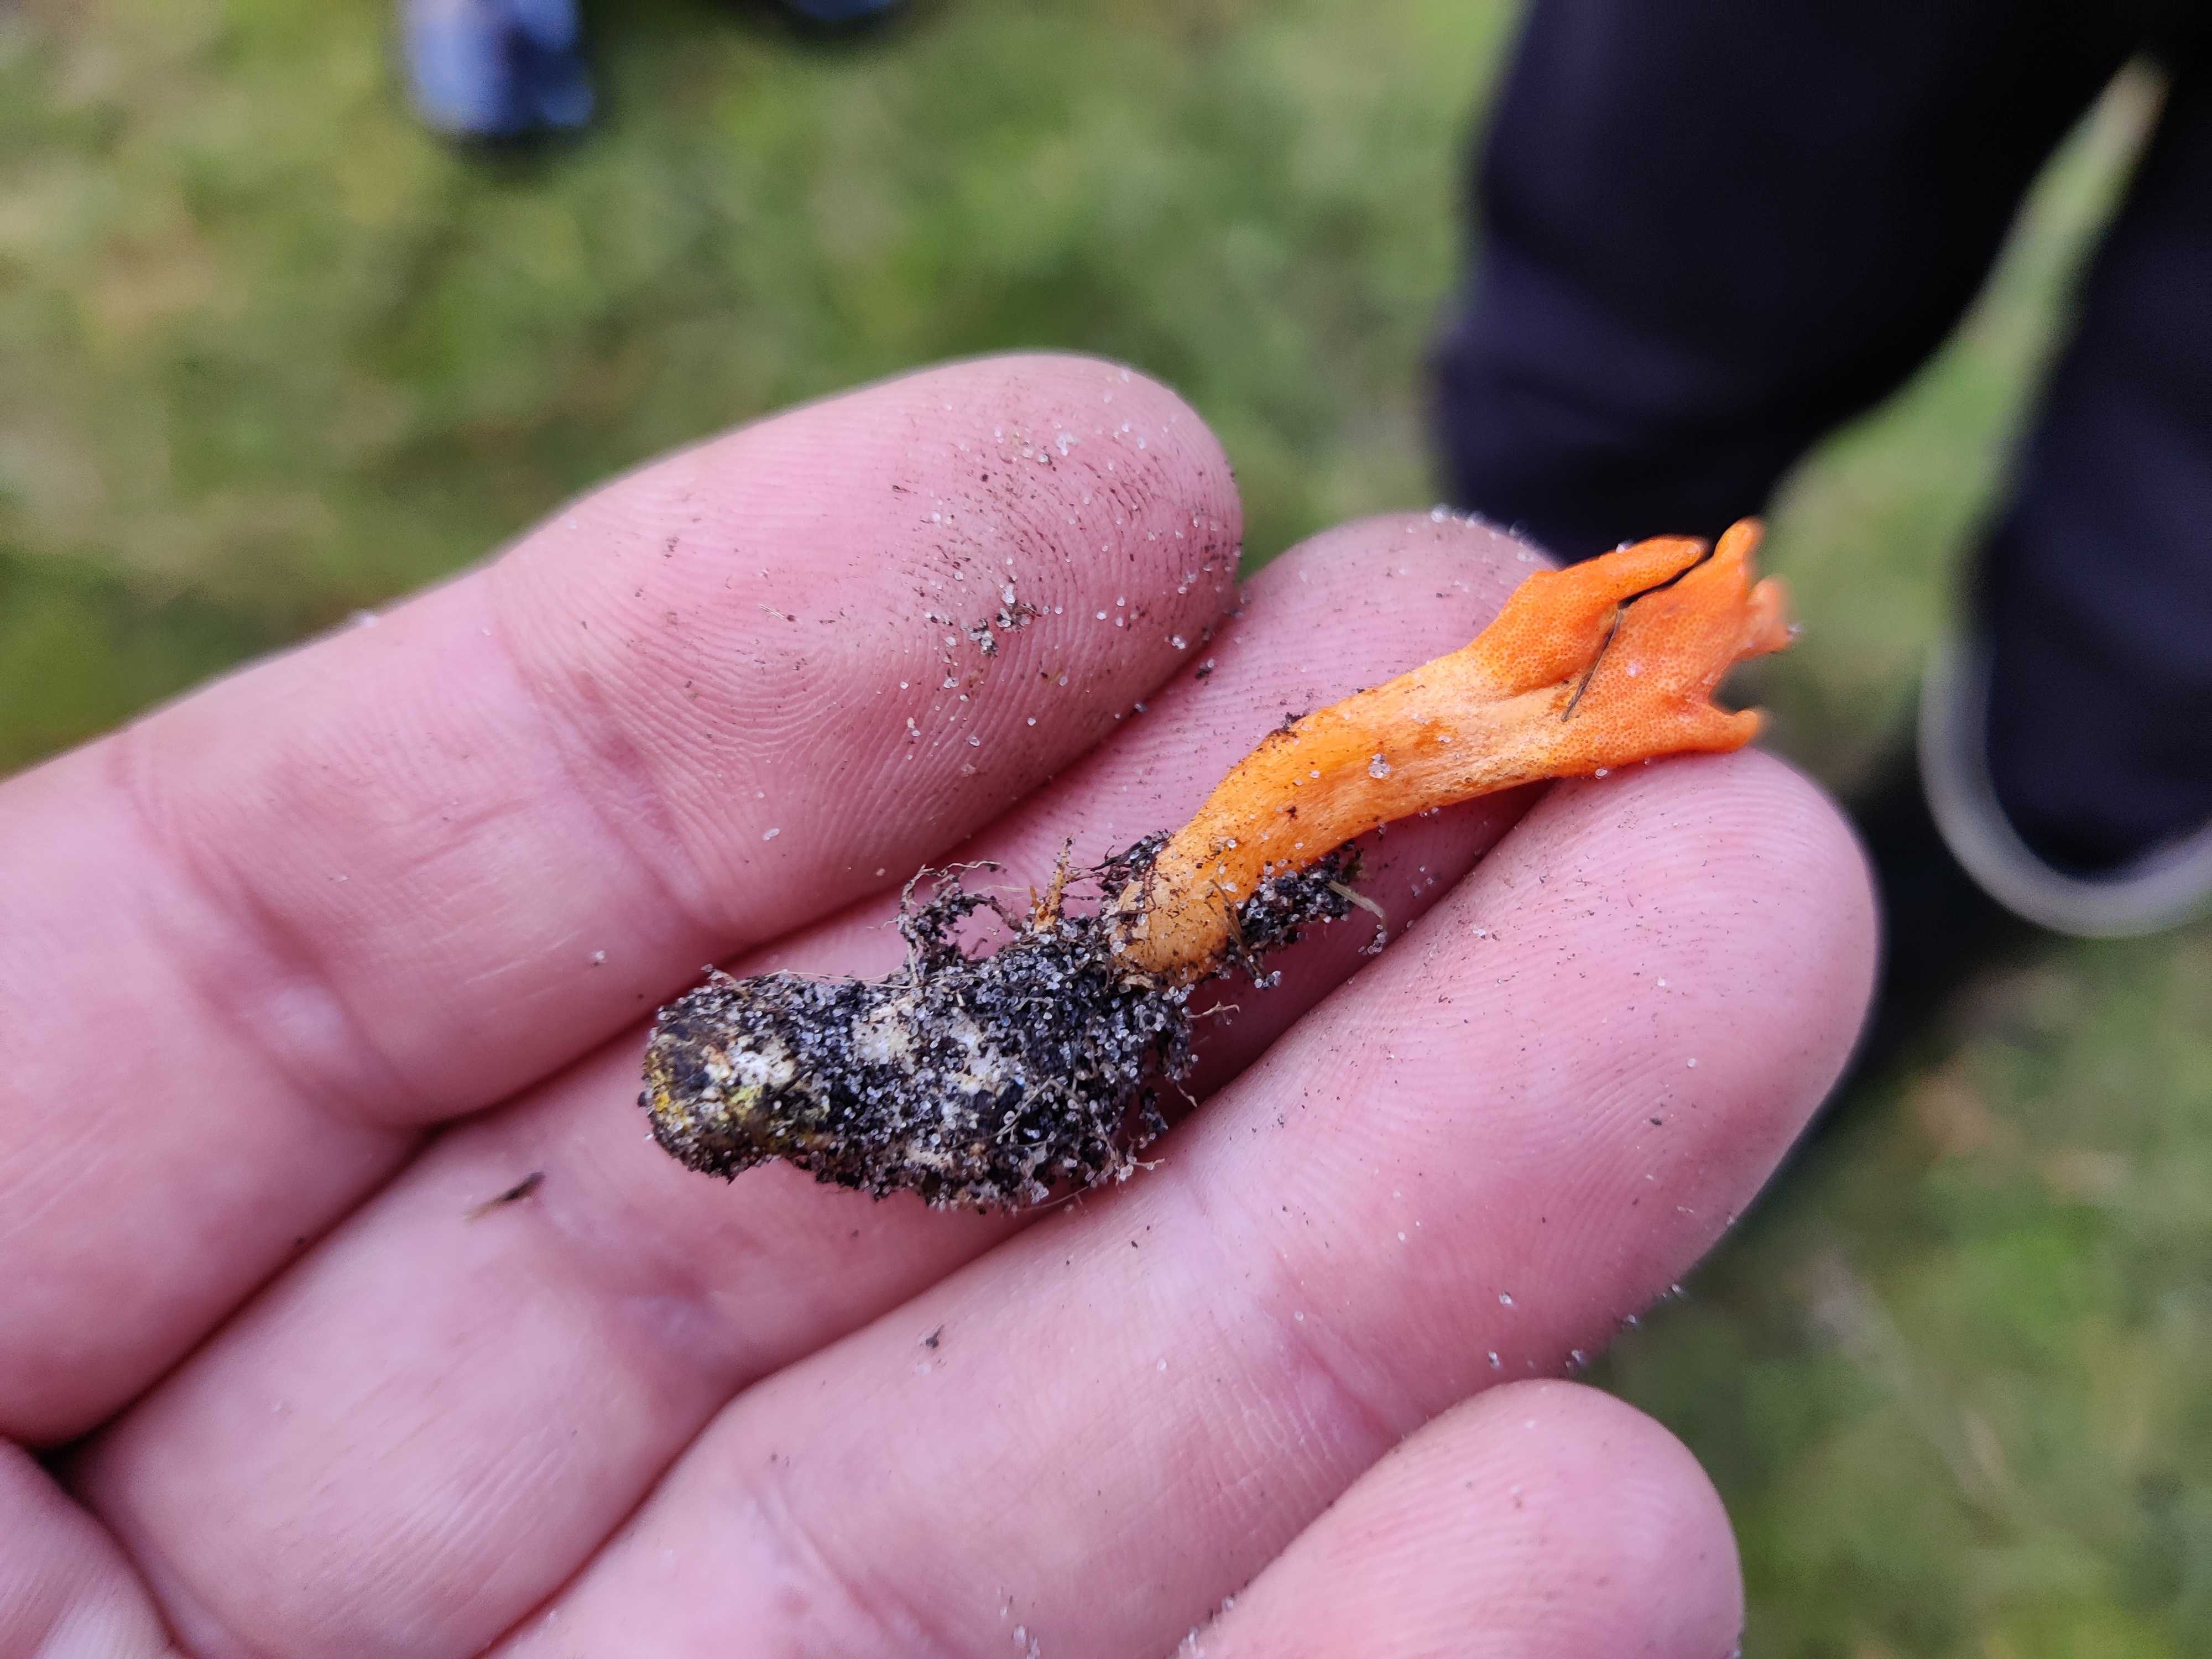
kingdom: Fungi
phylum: Ascomycota
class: Sordariomycetes
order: Hypocreales
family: Cordycipitaceae
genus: Cordyceps
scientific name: Cordyceps militaris
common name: puppe-snyltekølle
